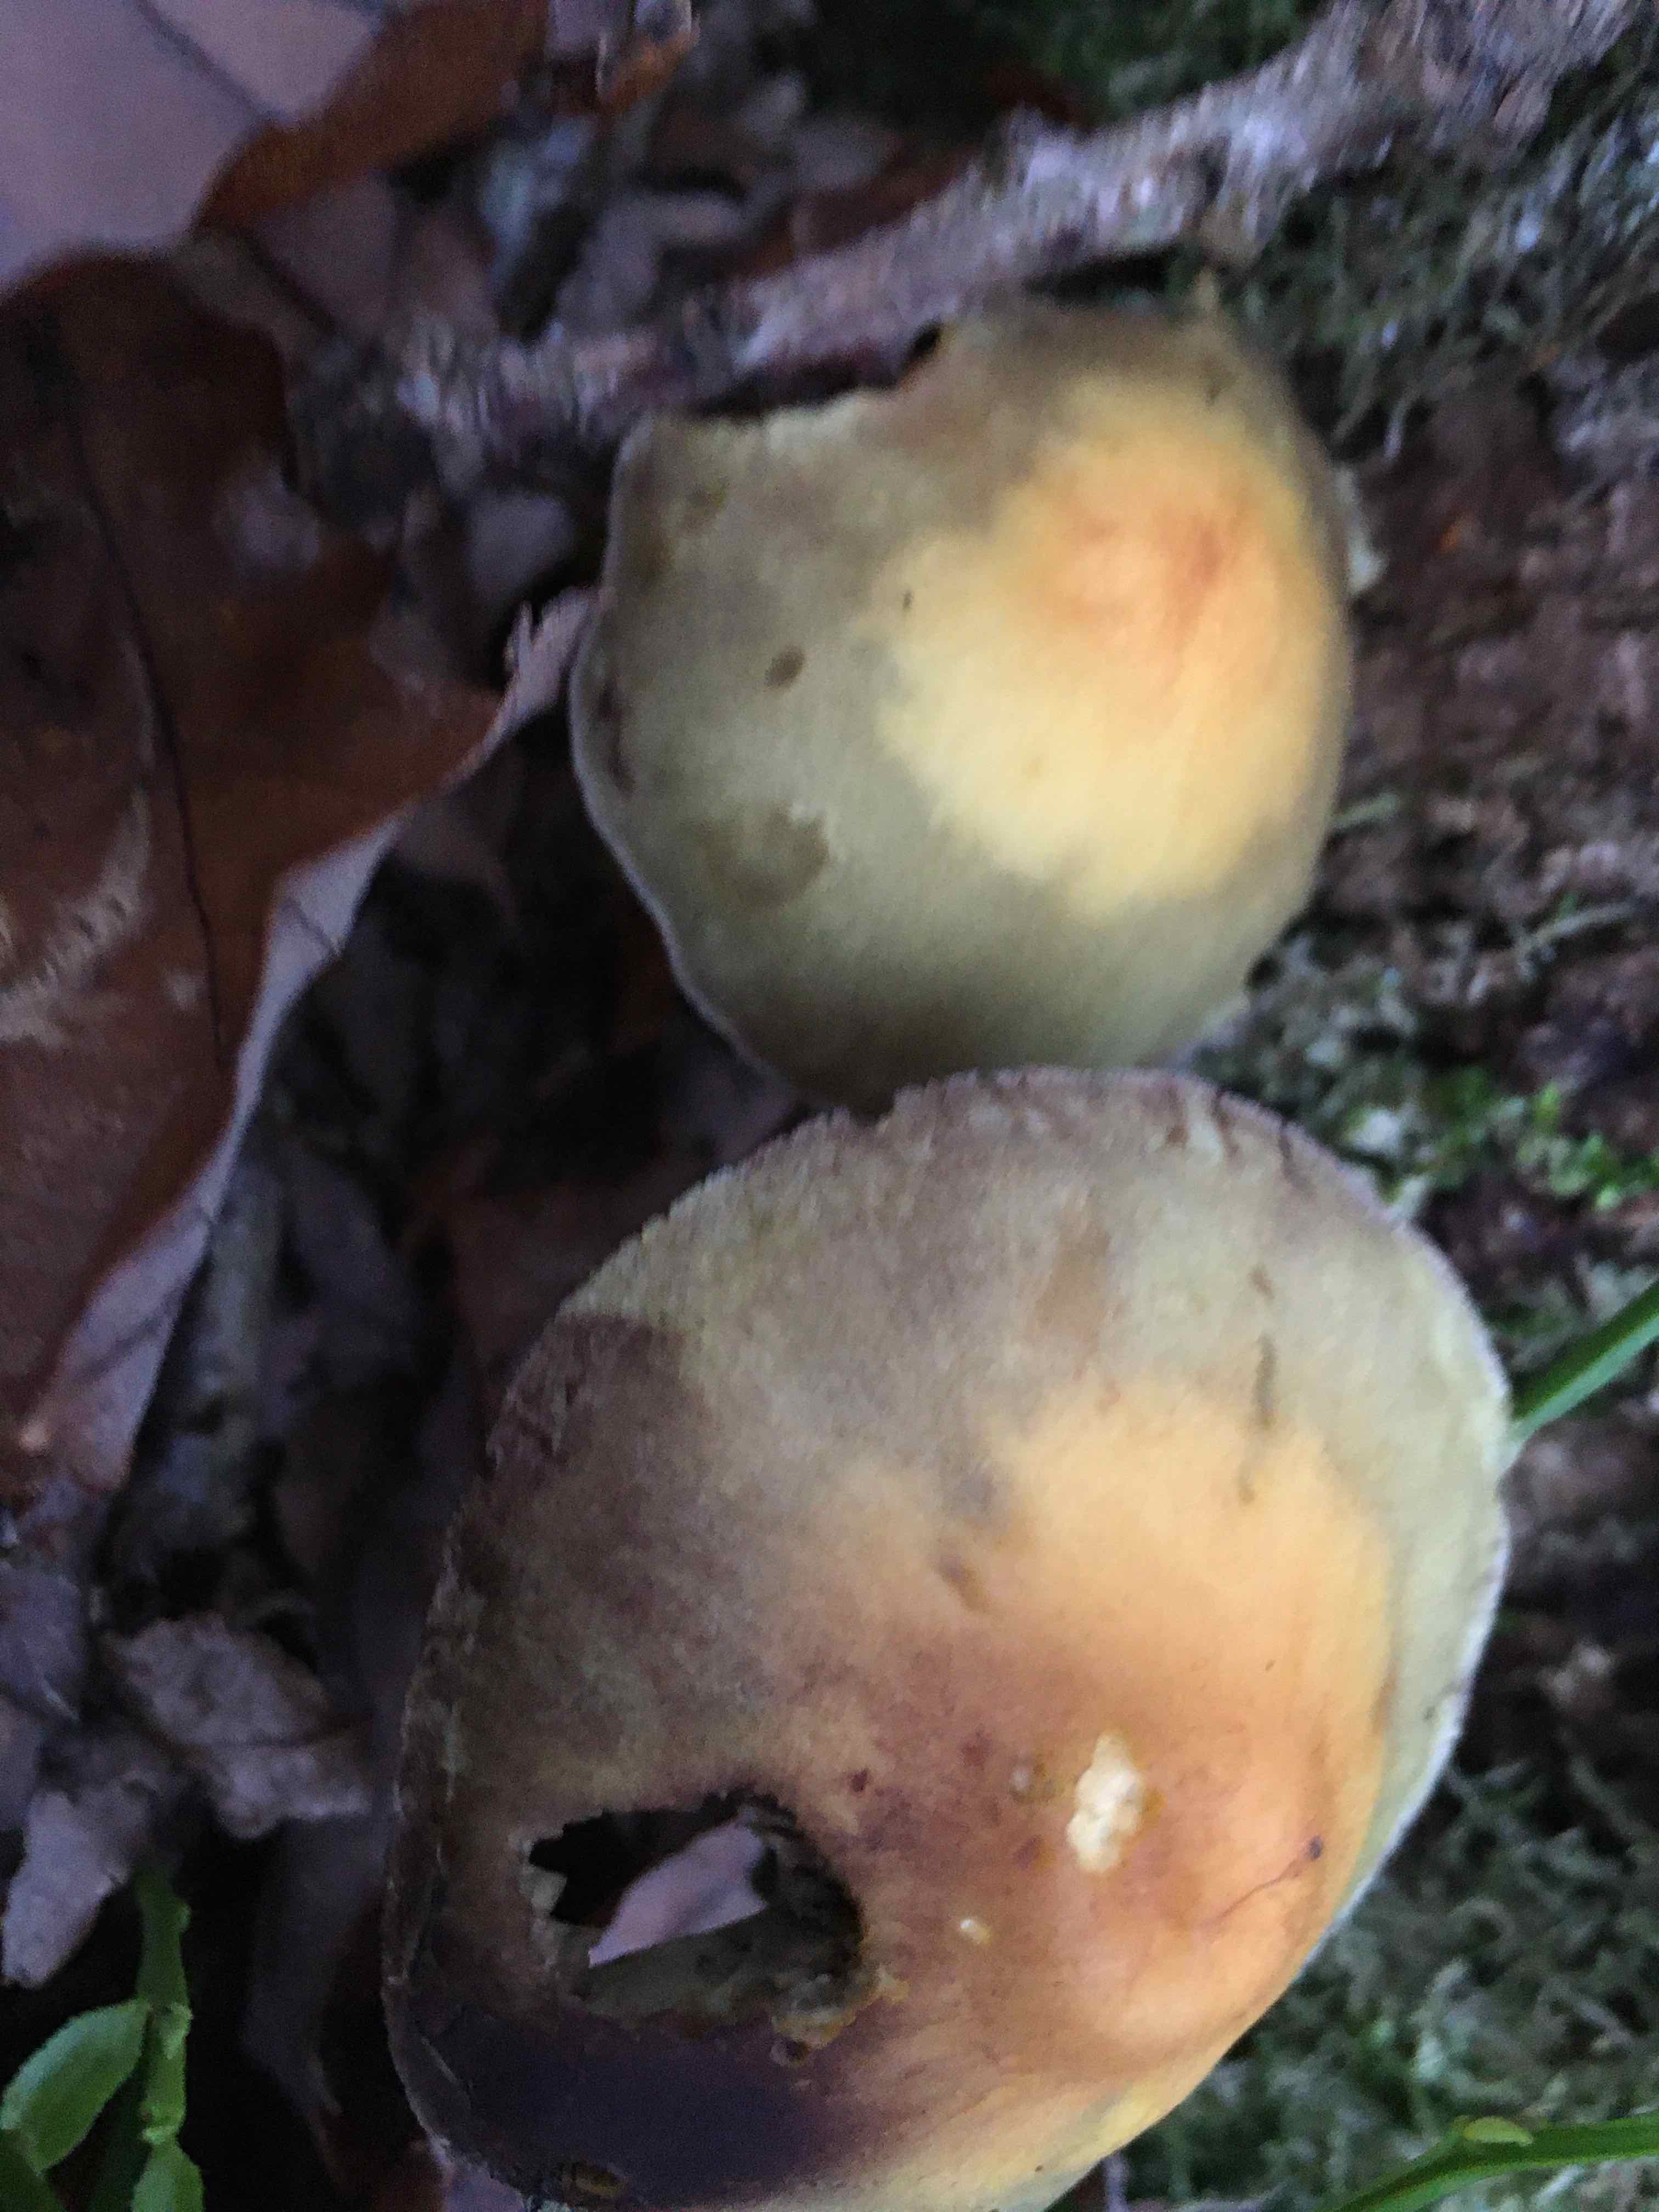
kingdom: Fungi
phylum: Basidiomycota
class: Agaricomycetes
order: Agaricales
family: Strophariaceae
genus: Hypholoma
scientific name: Hypholoma fasciculare
